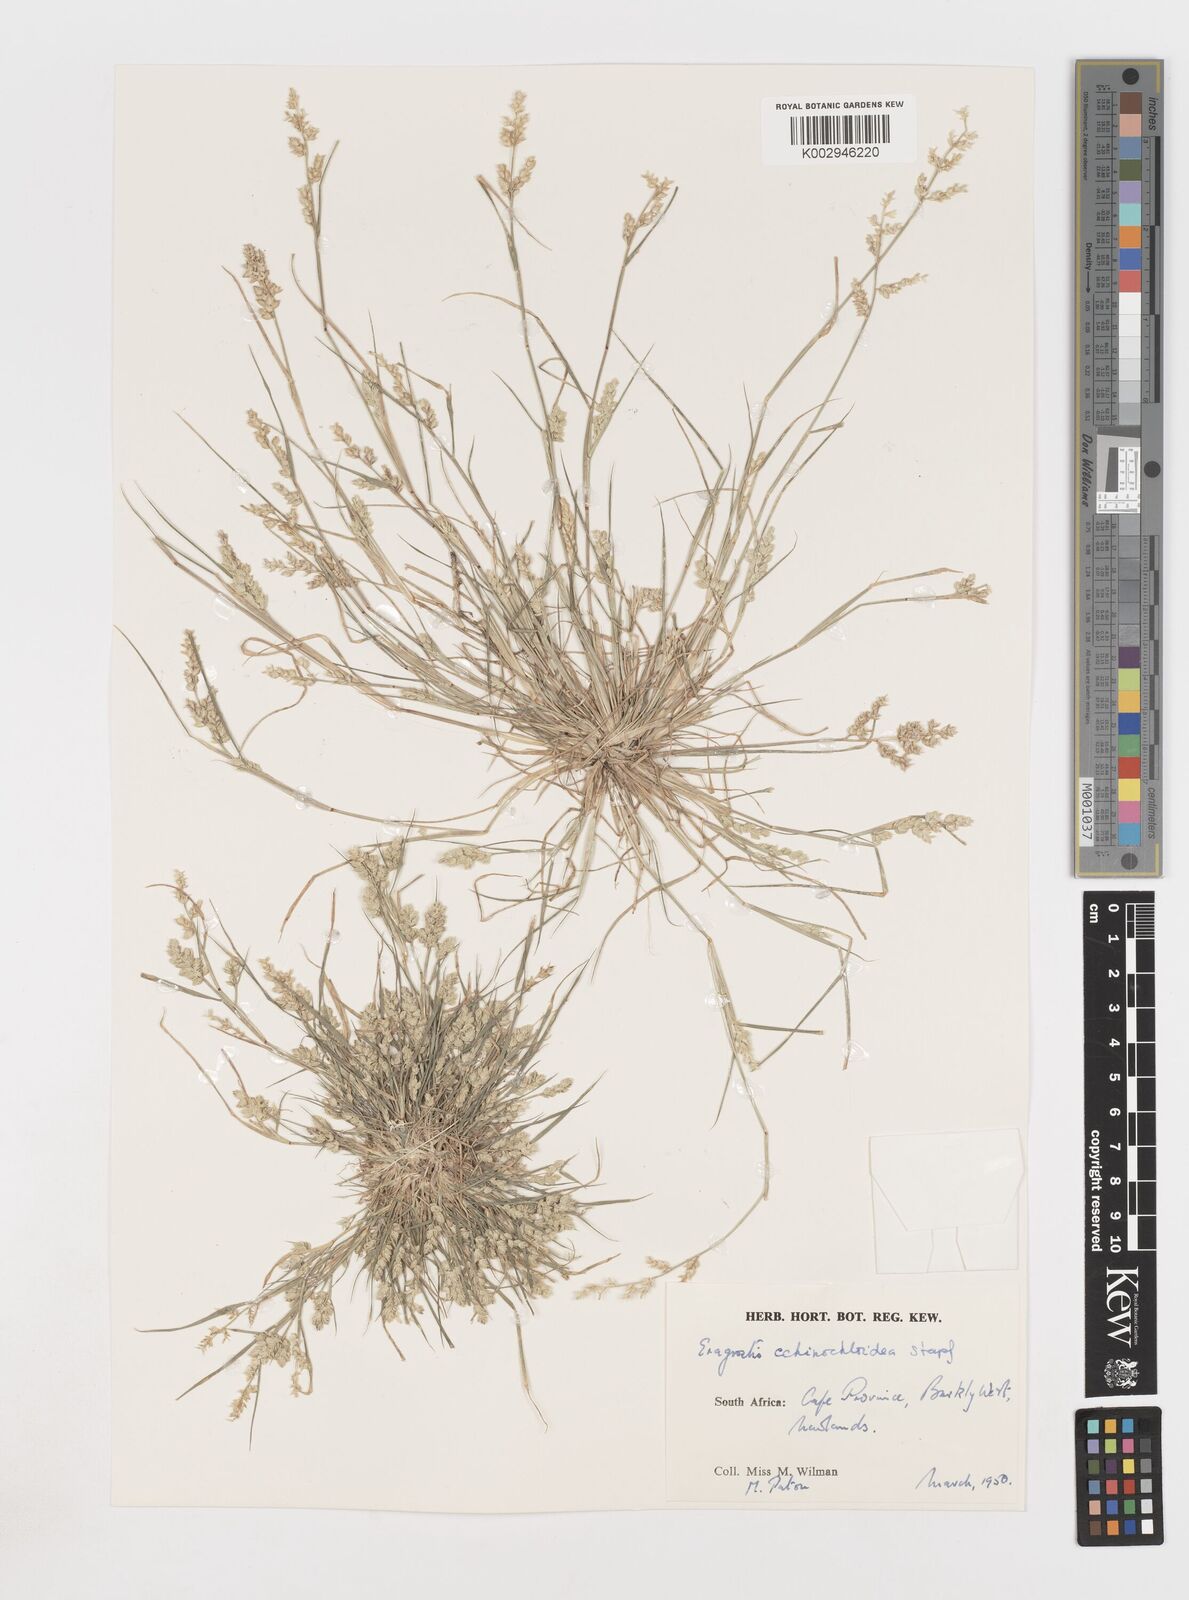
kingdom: Plantae
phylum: Tracheophyta
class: Liliopsida
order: Poales
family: Poaceae
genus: Eragrostis
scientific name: Eragrostis echinochloidea
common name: African lovegrass
